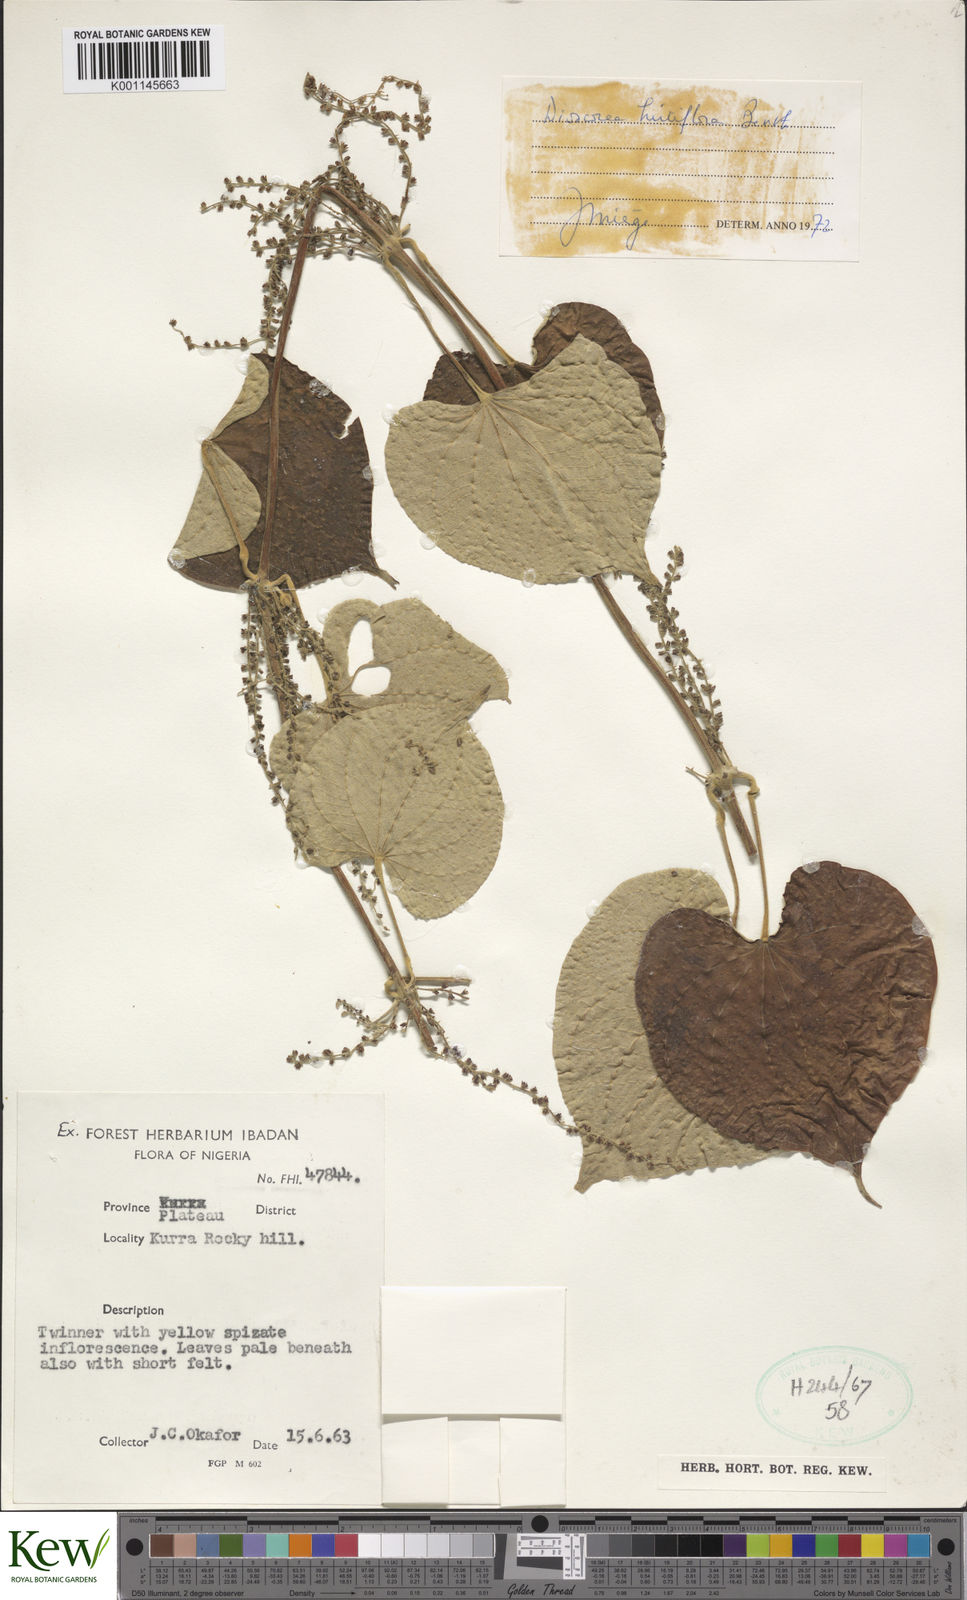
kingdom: Plantae
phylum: Tracheophyta
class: Liliopsida
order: Dioscoreales
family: Dioscoreaceae
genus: Dioscorea
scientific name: Dioscorea hirtiflora
